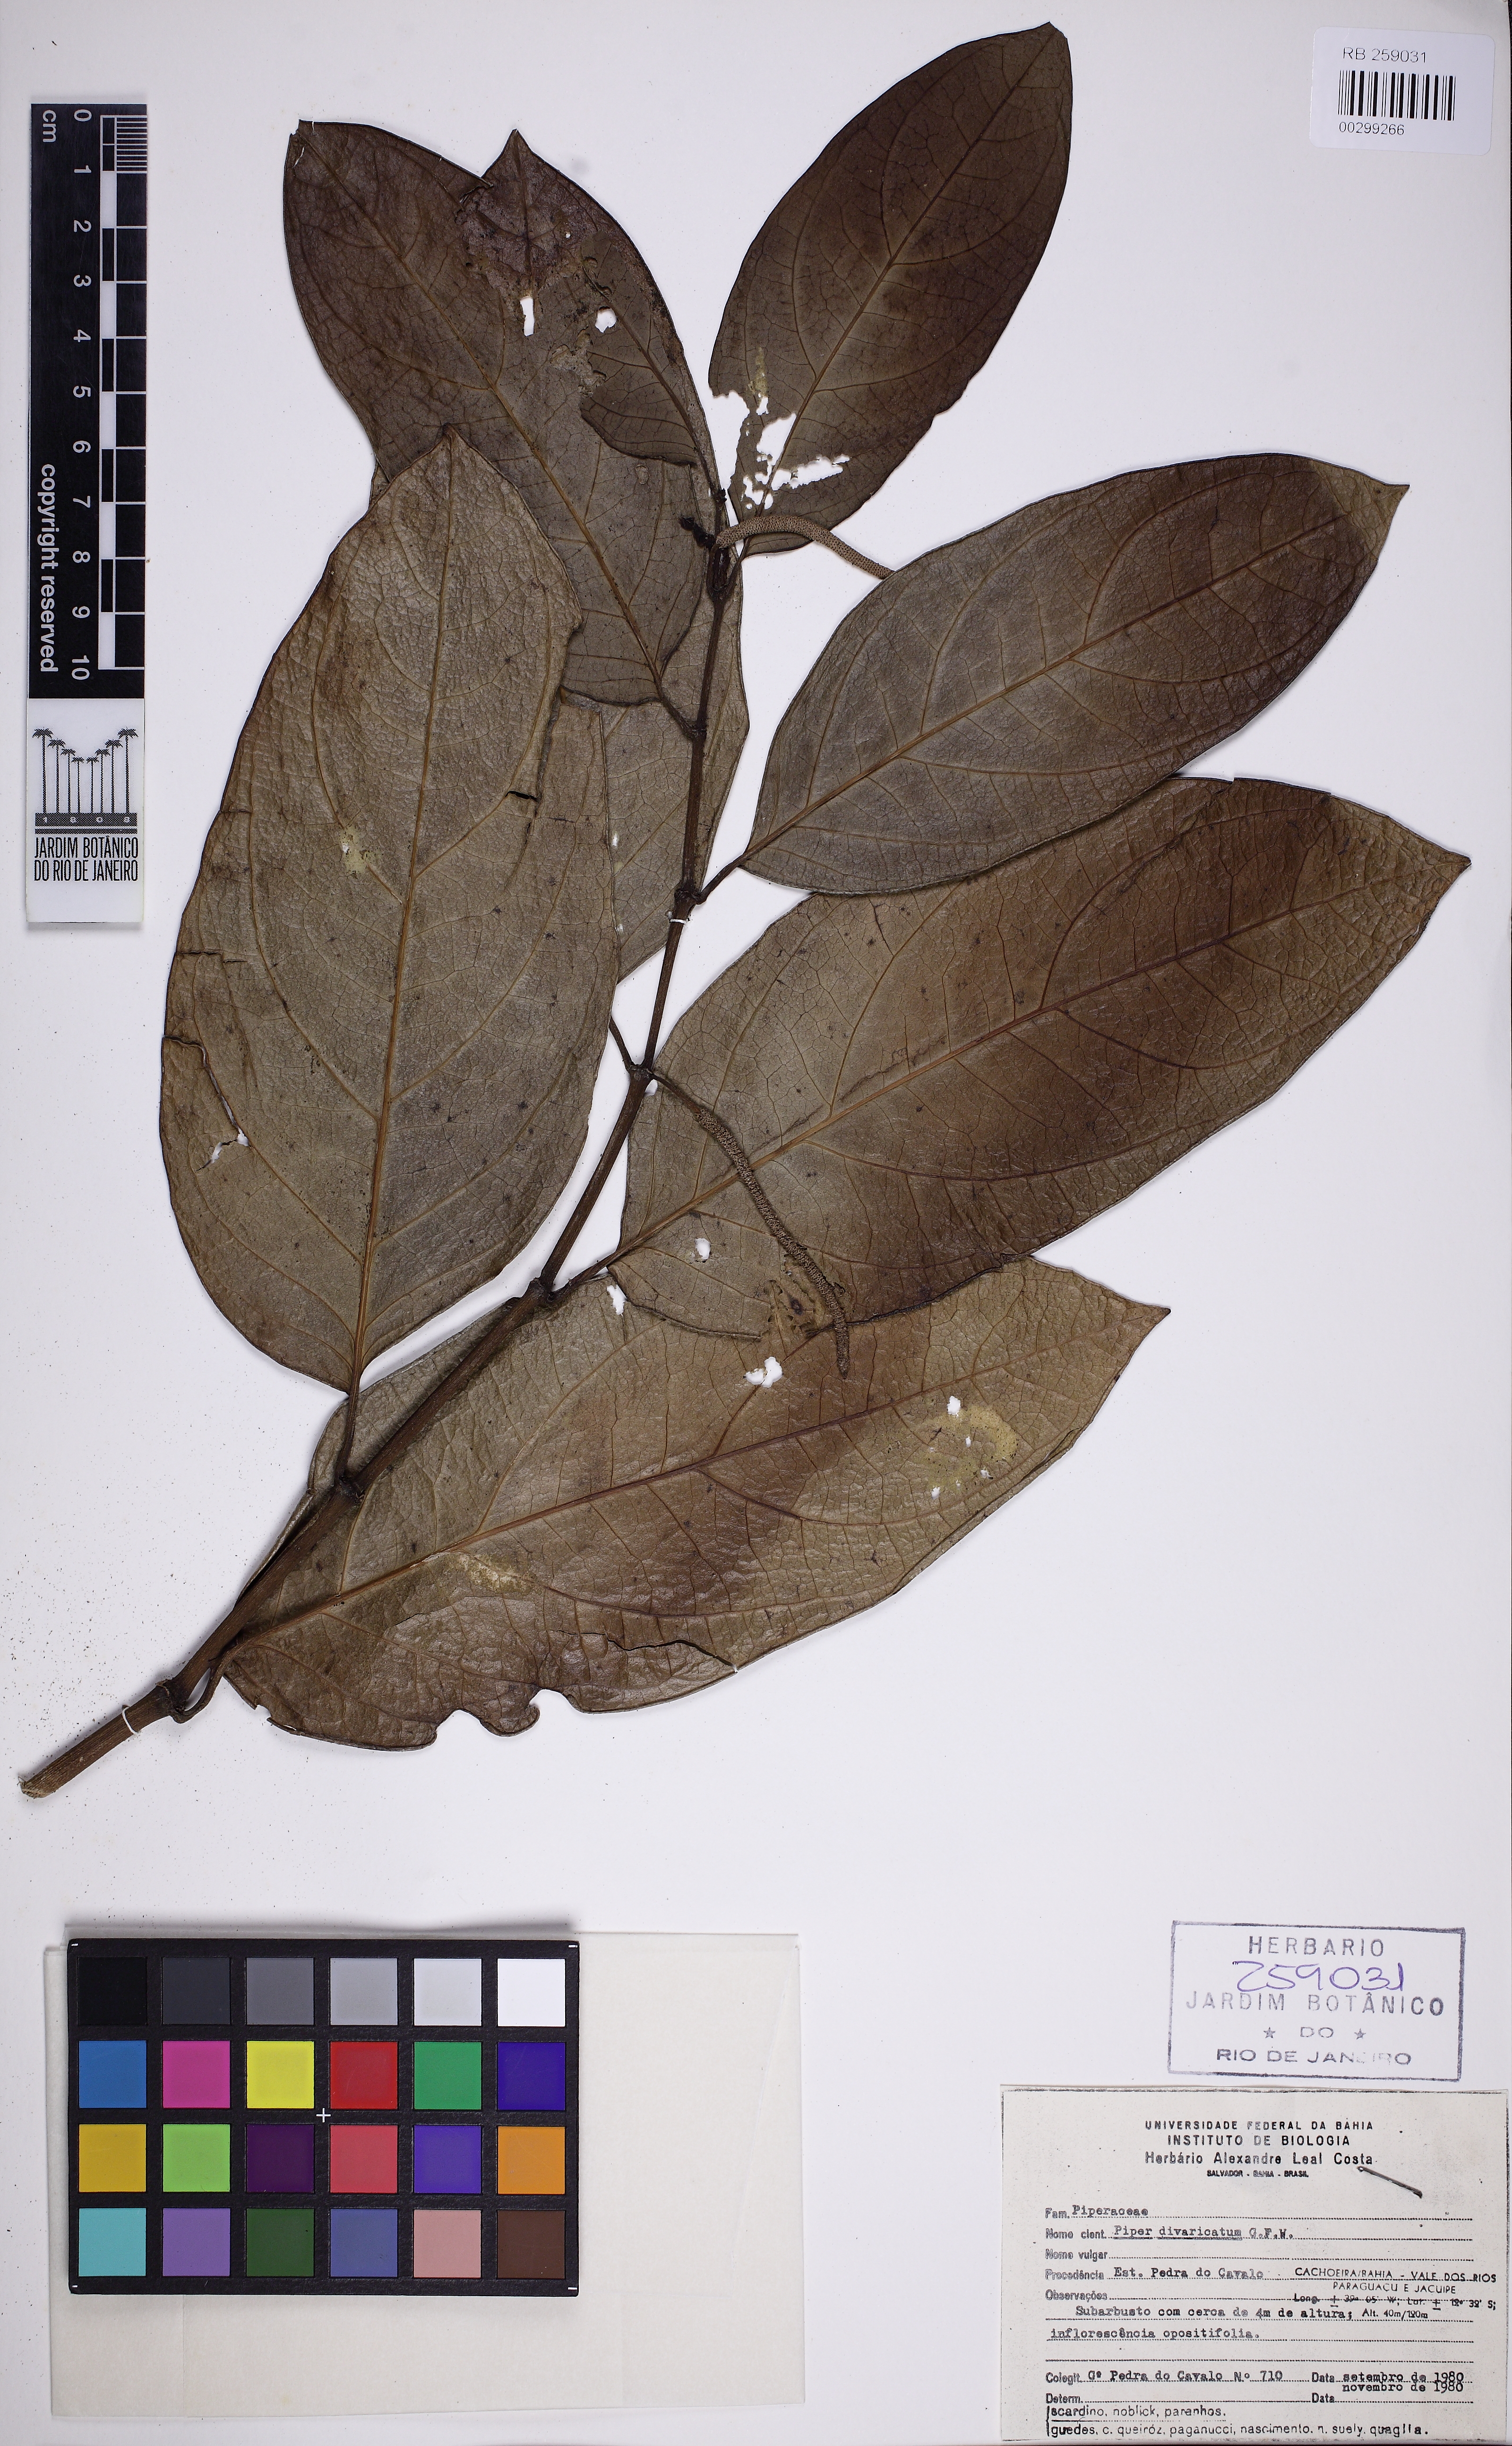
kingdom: Plantae
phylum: Tracheophyta
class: Magnoliopsida
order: Piperales
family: Piperaceae
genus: Piper
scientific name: Piper divaricatum
